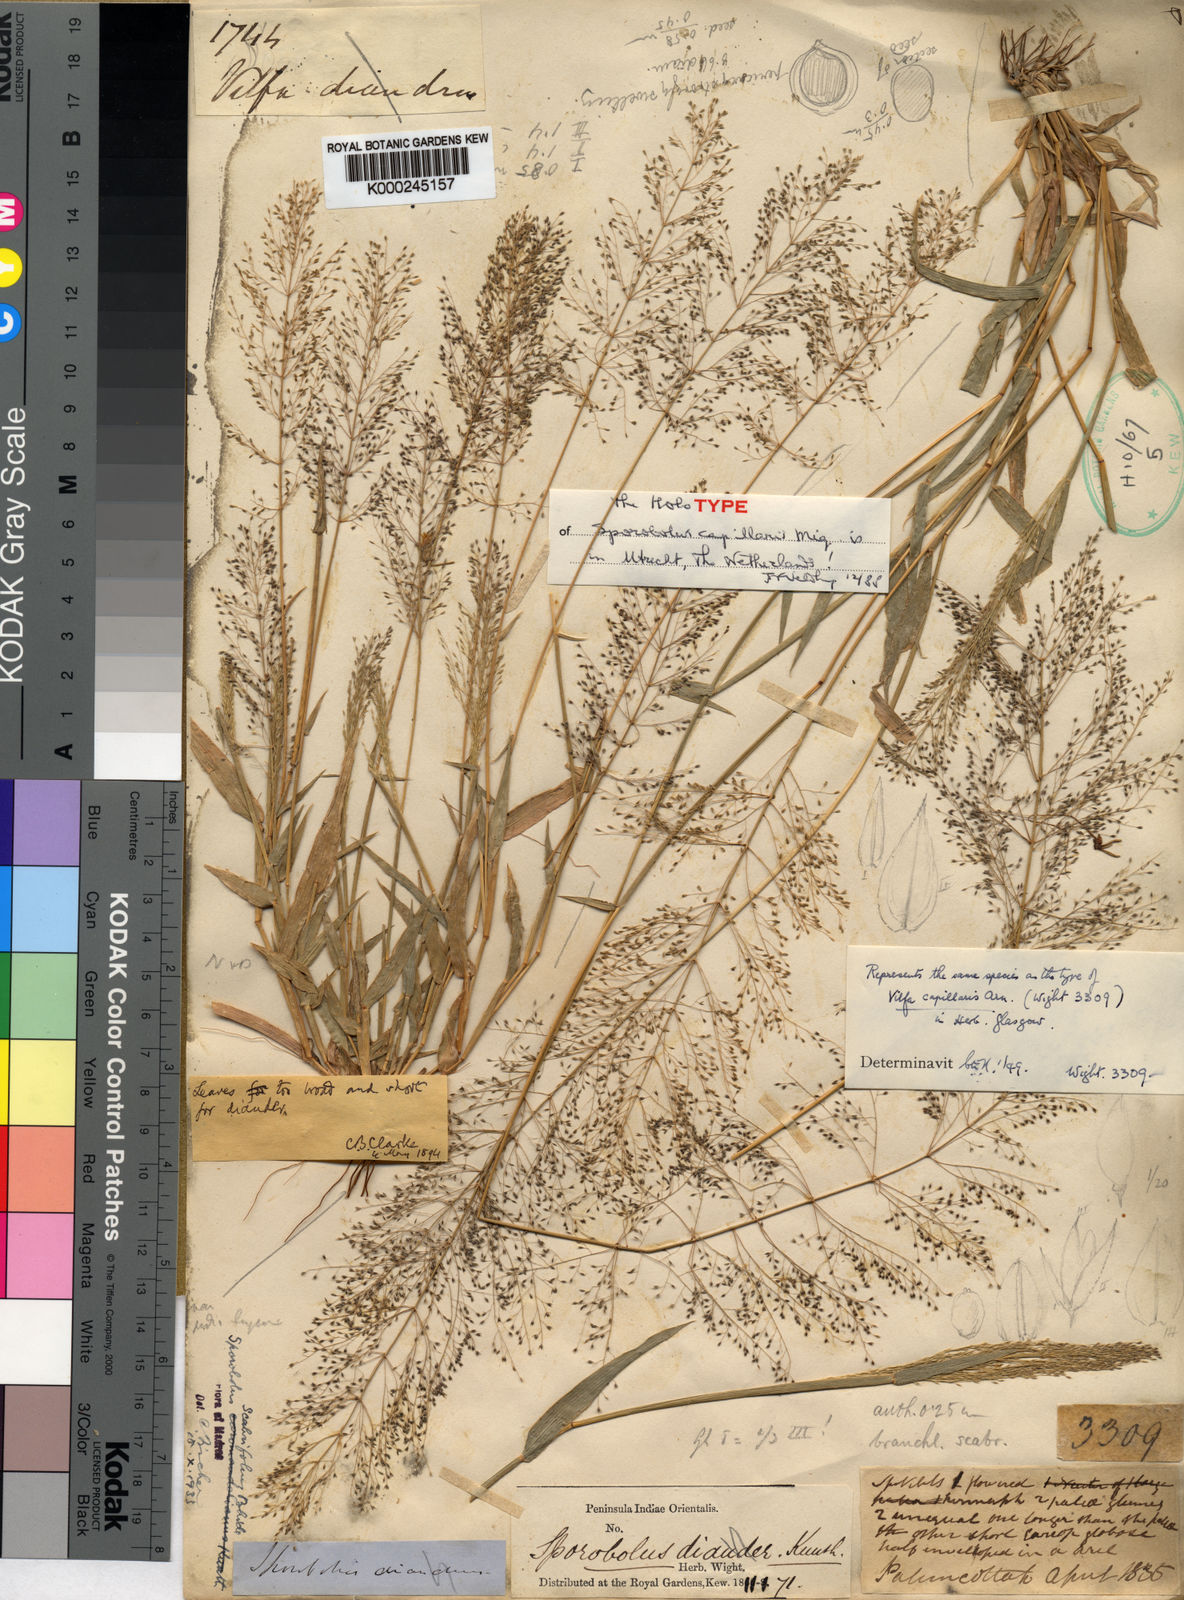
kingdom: Plantae
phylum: Tracheophyta
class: Liliopsida
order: Poales
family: Poaceae
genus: Sporobolus
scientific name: Sporobolus capillaris
